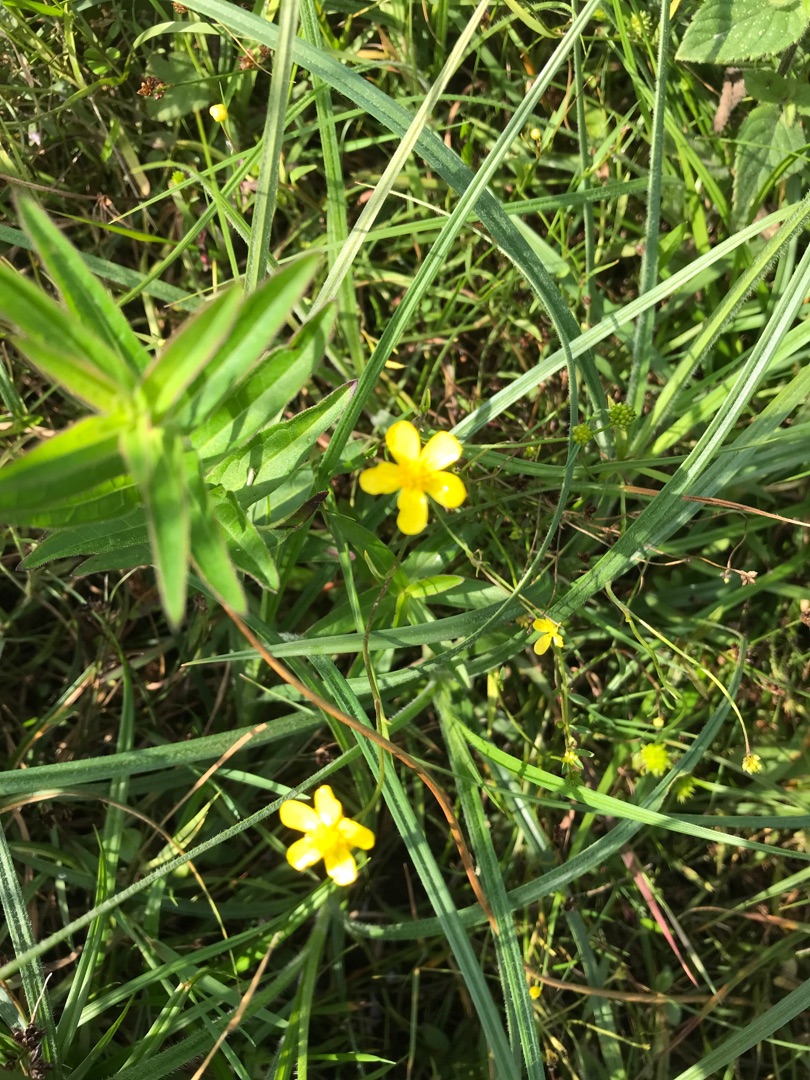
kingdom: Plantae
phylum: Tracheophyta
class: Magnoliopsida
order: Ranunculales
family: Ranunculaceae
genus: Ranunculus
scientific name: Ranunculus flammula
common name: Kær-ranunkel
